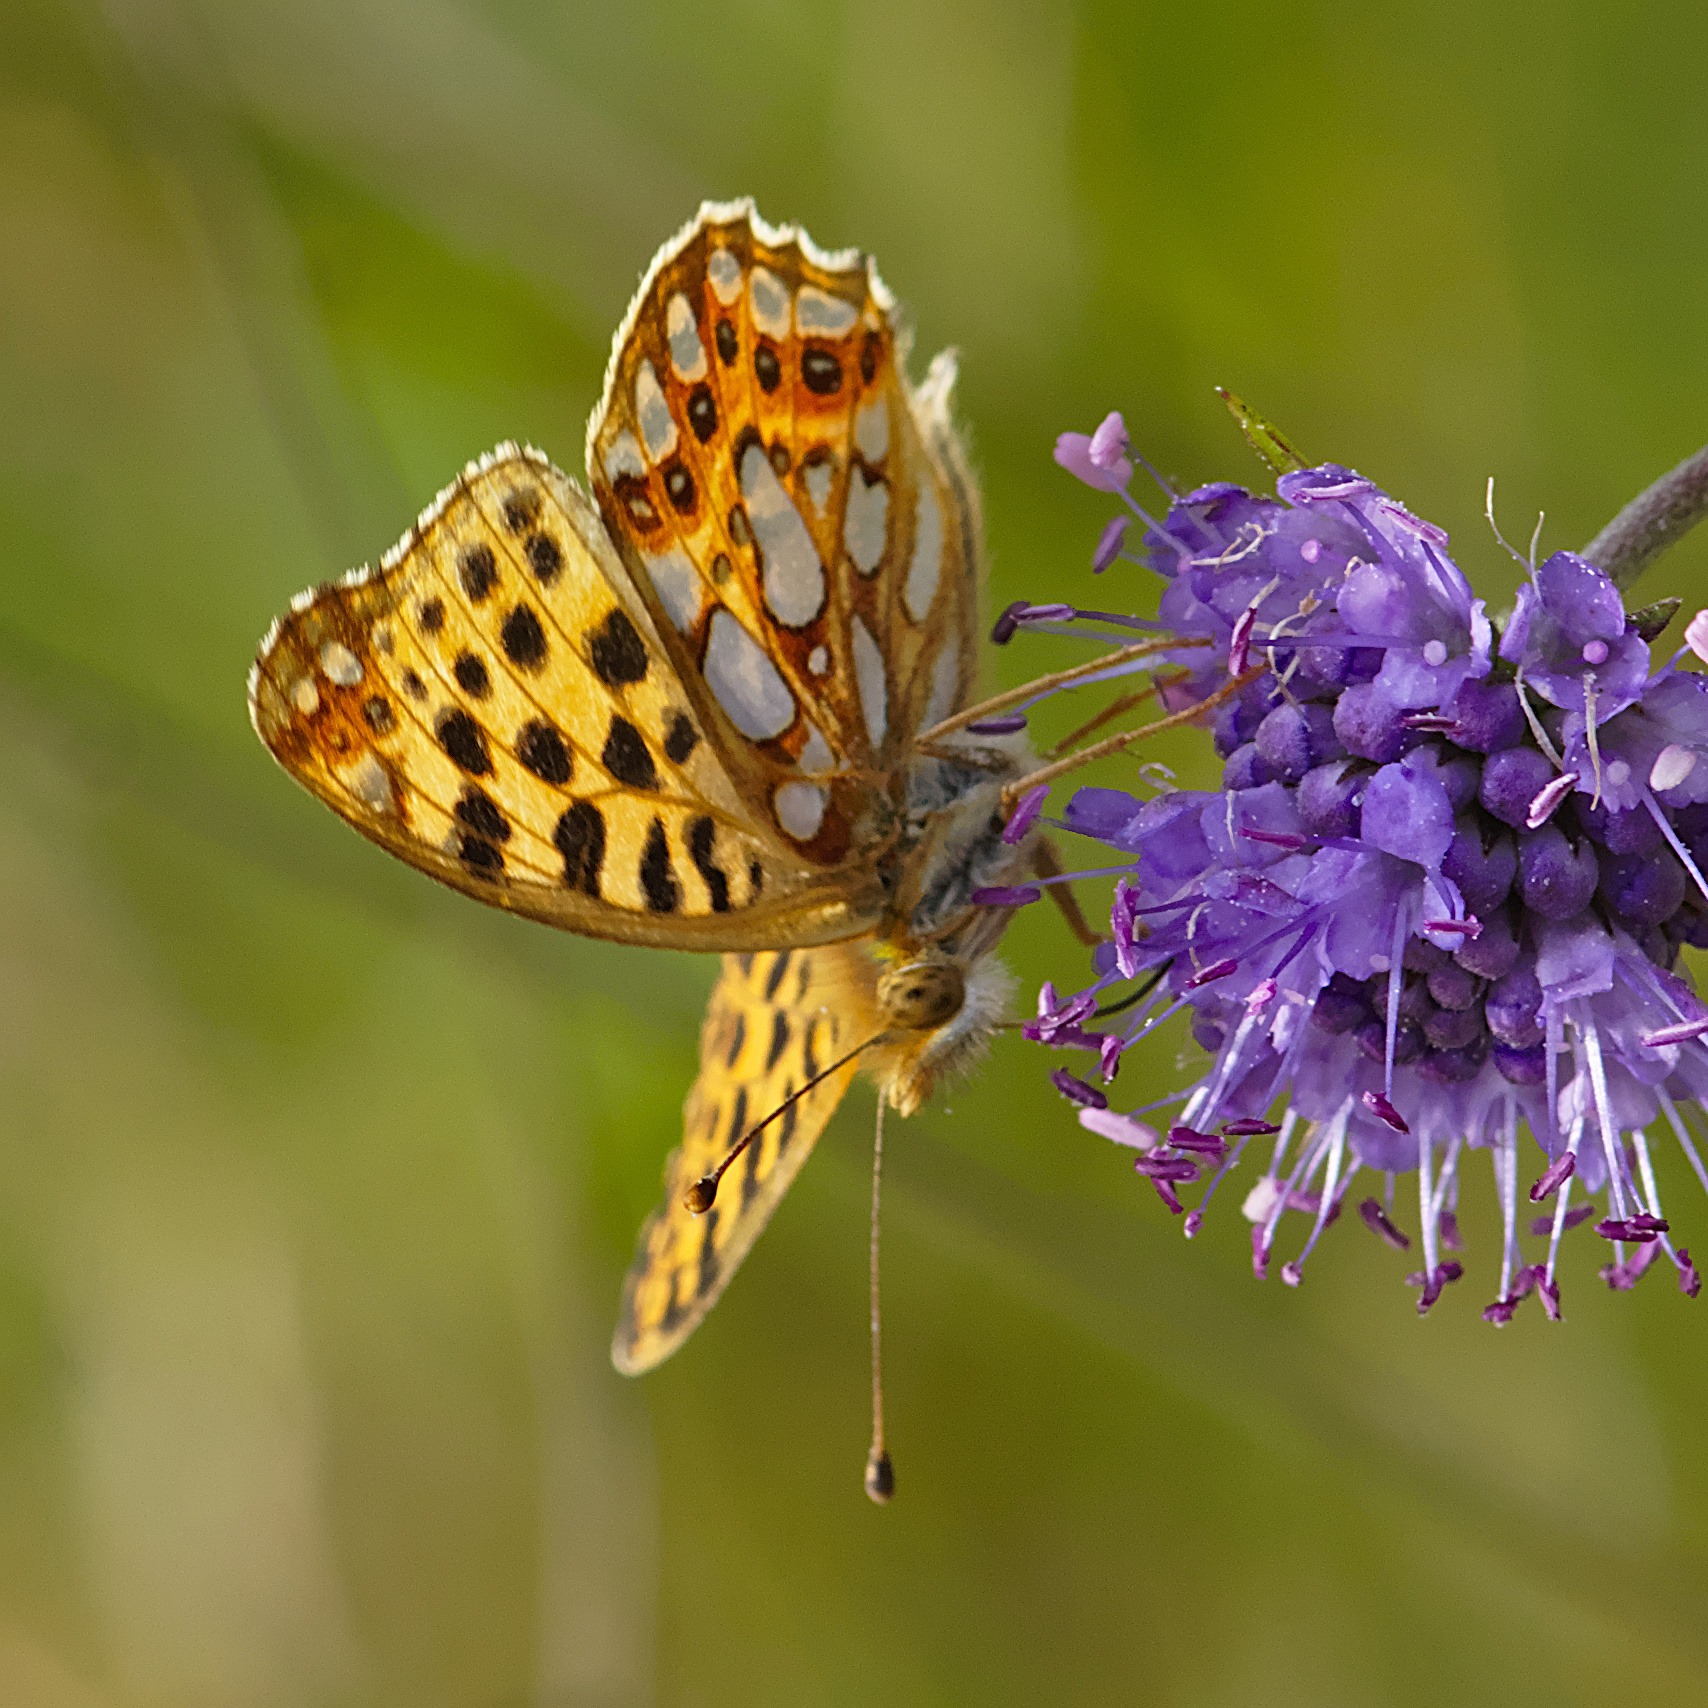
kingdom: Animalia
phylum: Arthropoda
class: Insecta
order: Lepidoptera
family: Nymphalidae
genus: Issoria
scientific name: Issoria lathonia
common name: Storplettet perlemorsommerfugl
